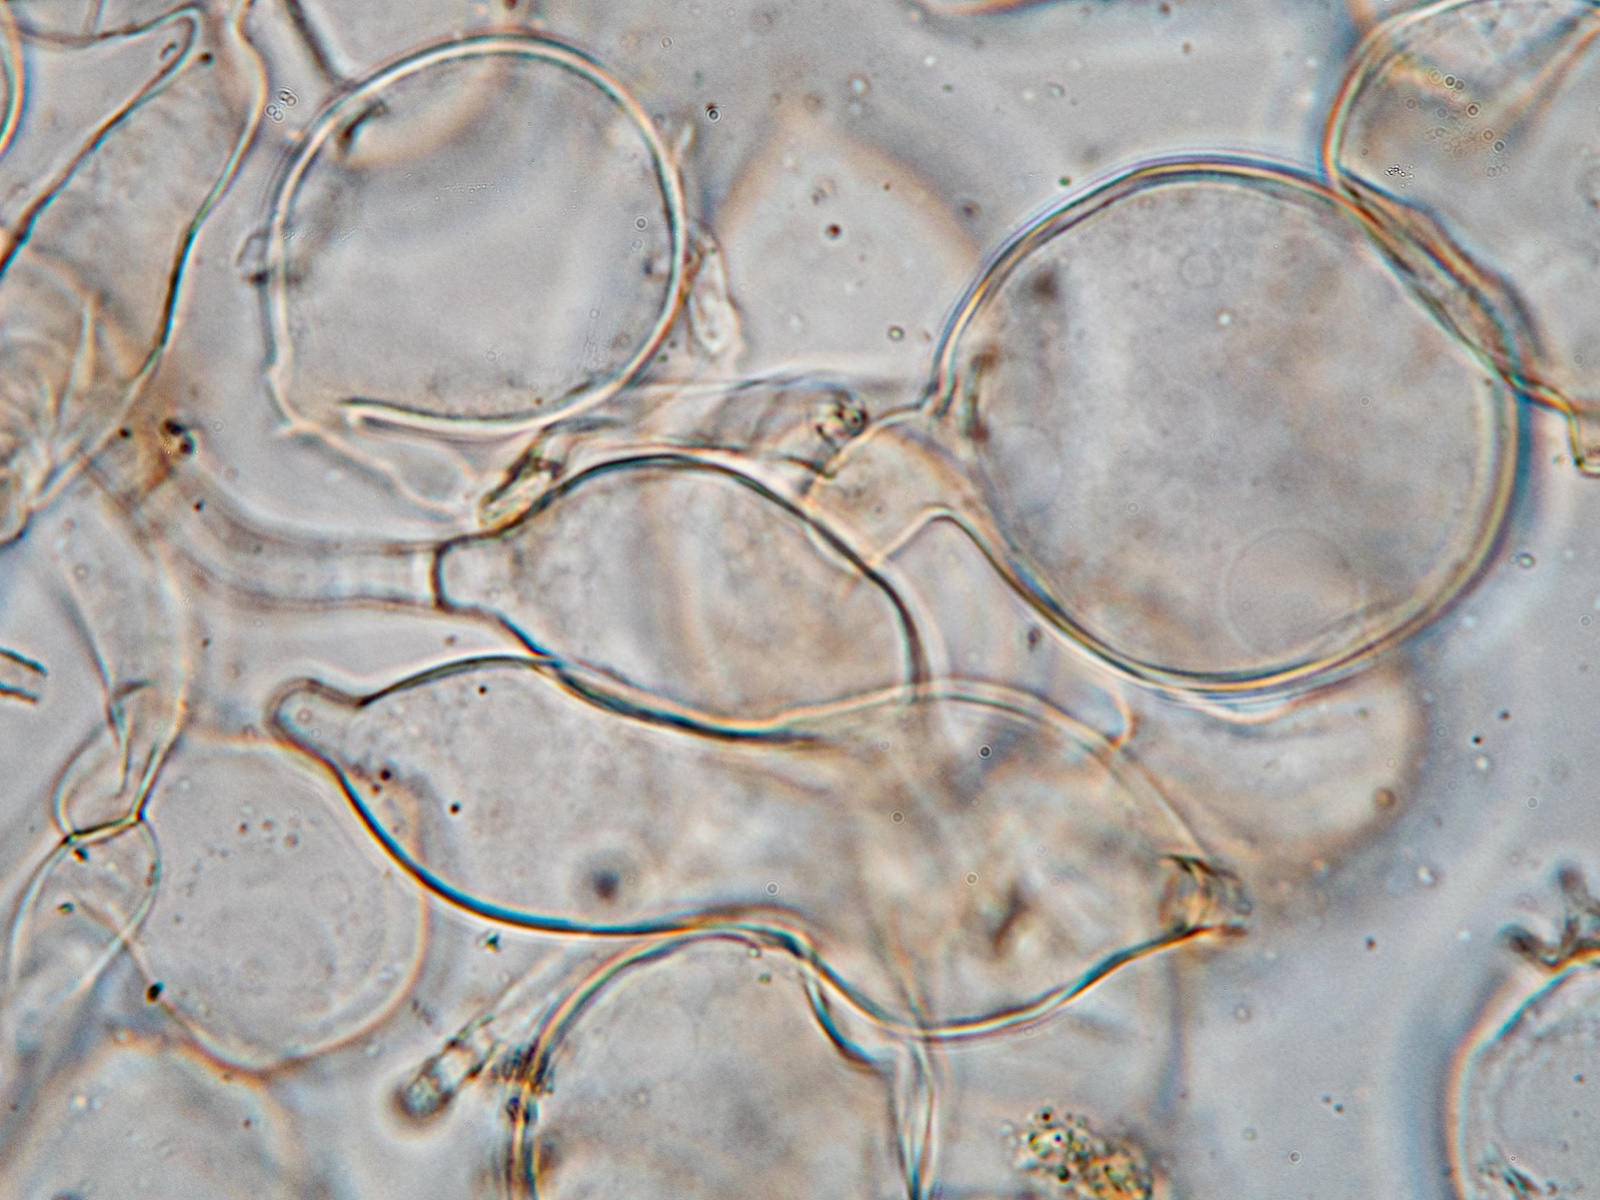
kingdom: Fungi
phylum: Basidiomycota
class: Agaricomycetes
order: Agaricales
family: Psathyrellaceae
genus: Coprinellus
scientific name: Coprinellus radians
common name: grynet blækhat
